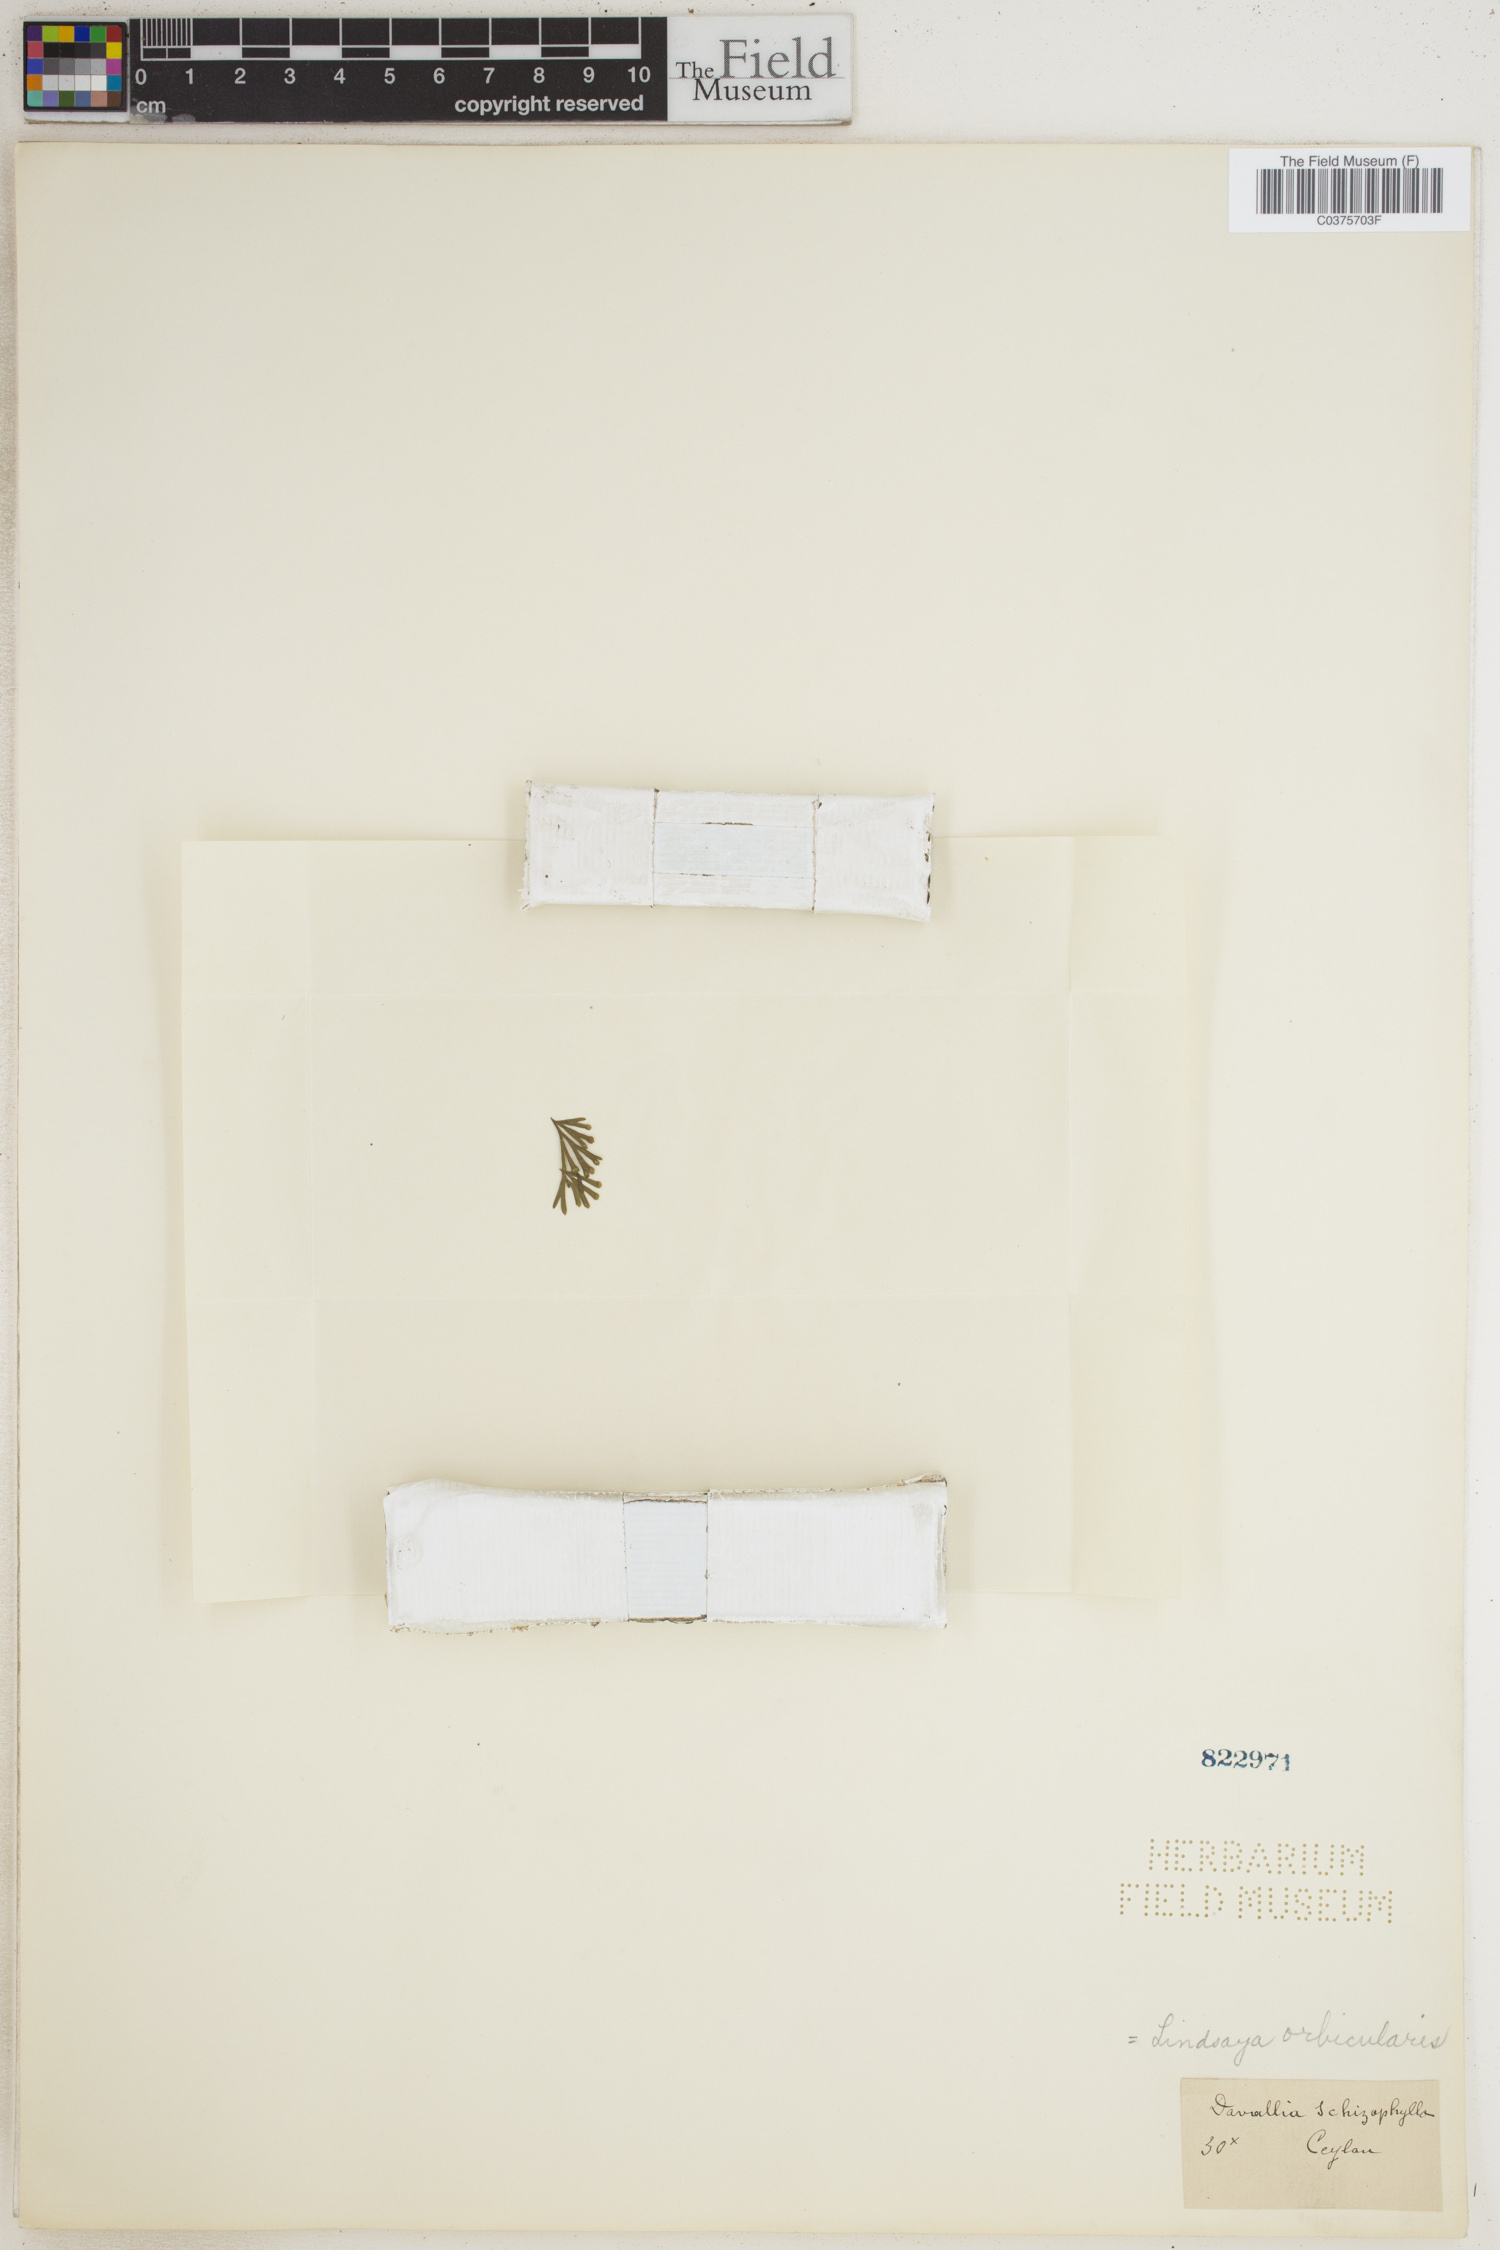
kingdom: Plantae
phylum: Tracheophyta
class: Polypodiopsida
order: Polypodiales
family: Lindsaeaceae
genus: Lindsaea
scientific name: Lindsaea schizophylla
